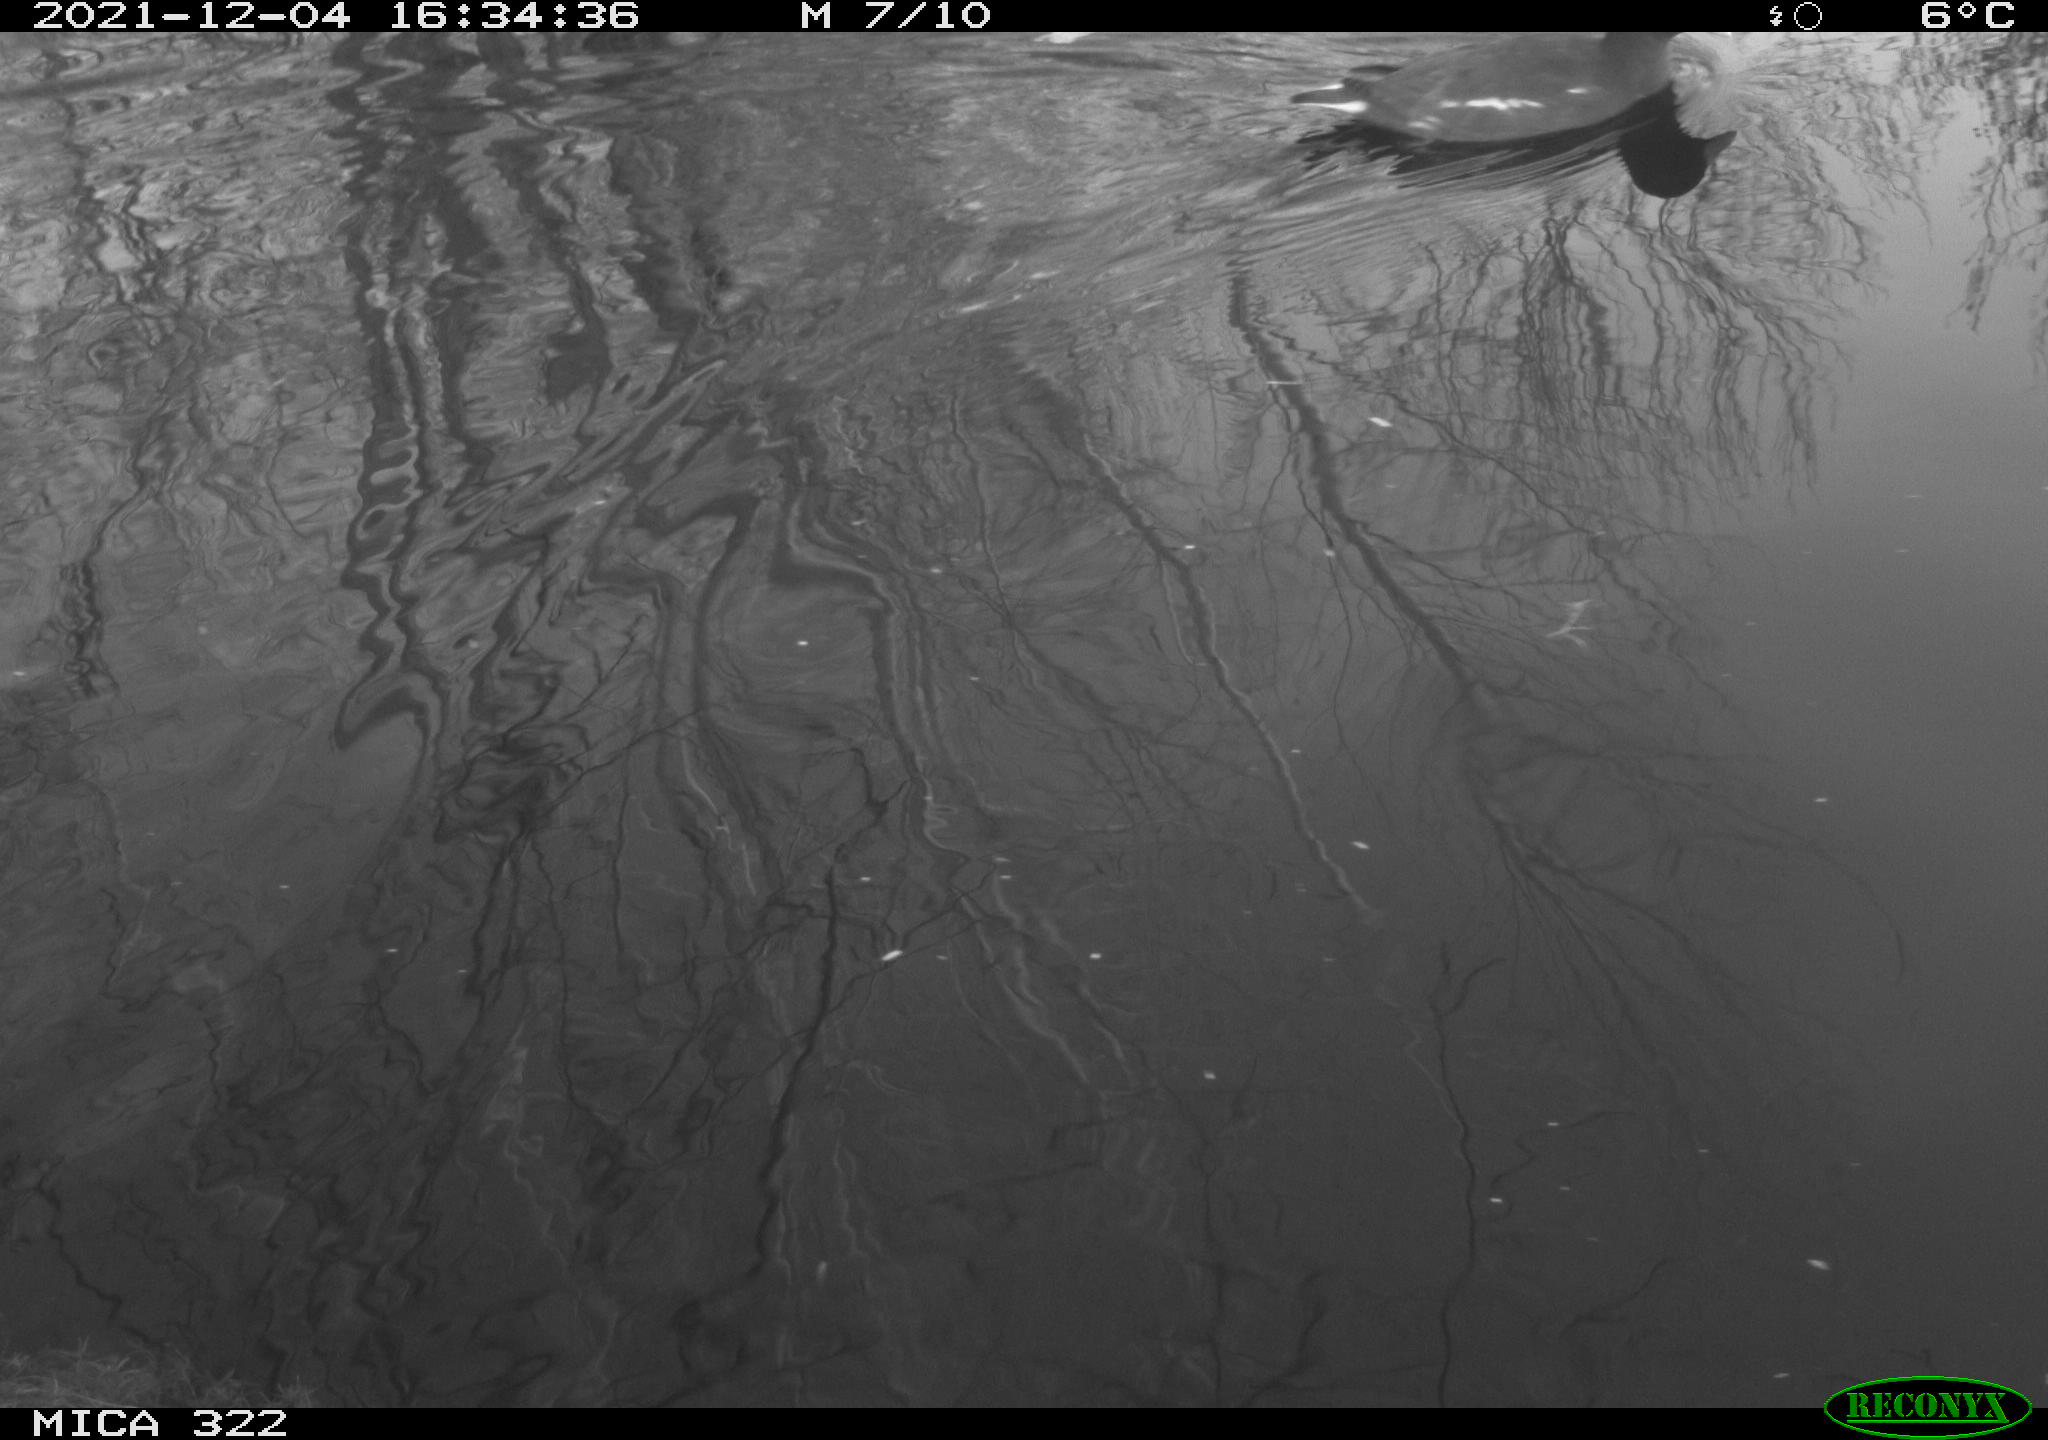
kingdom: Animalia
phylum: Chordata
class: Aves
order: Gruiformes
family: Rallidae
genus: Gallinula
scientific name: Gallinula chloropus
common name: Common moorhen
